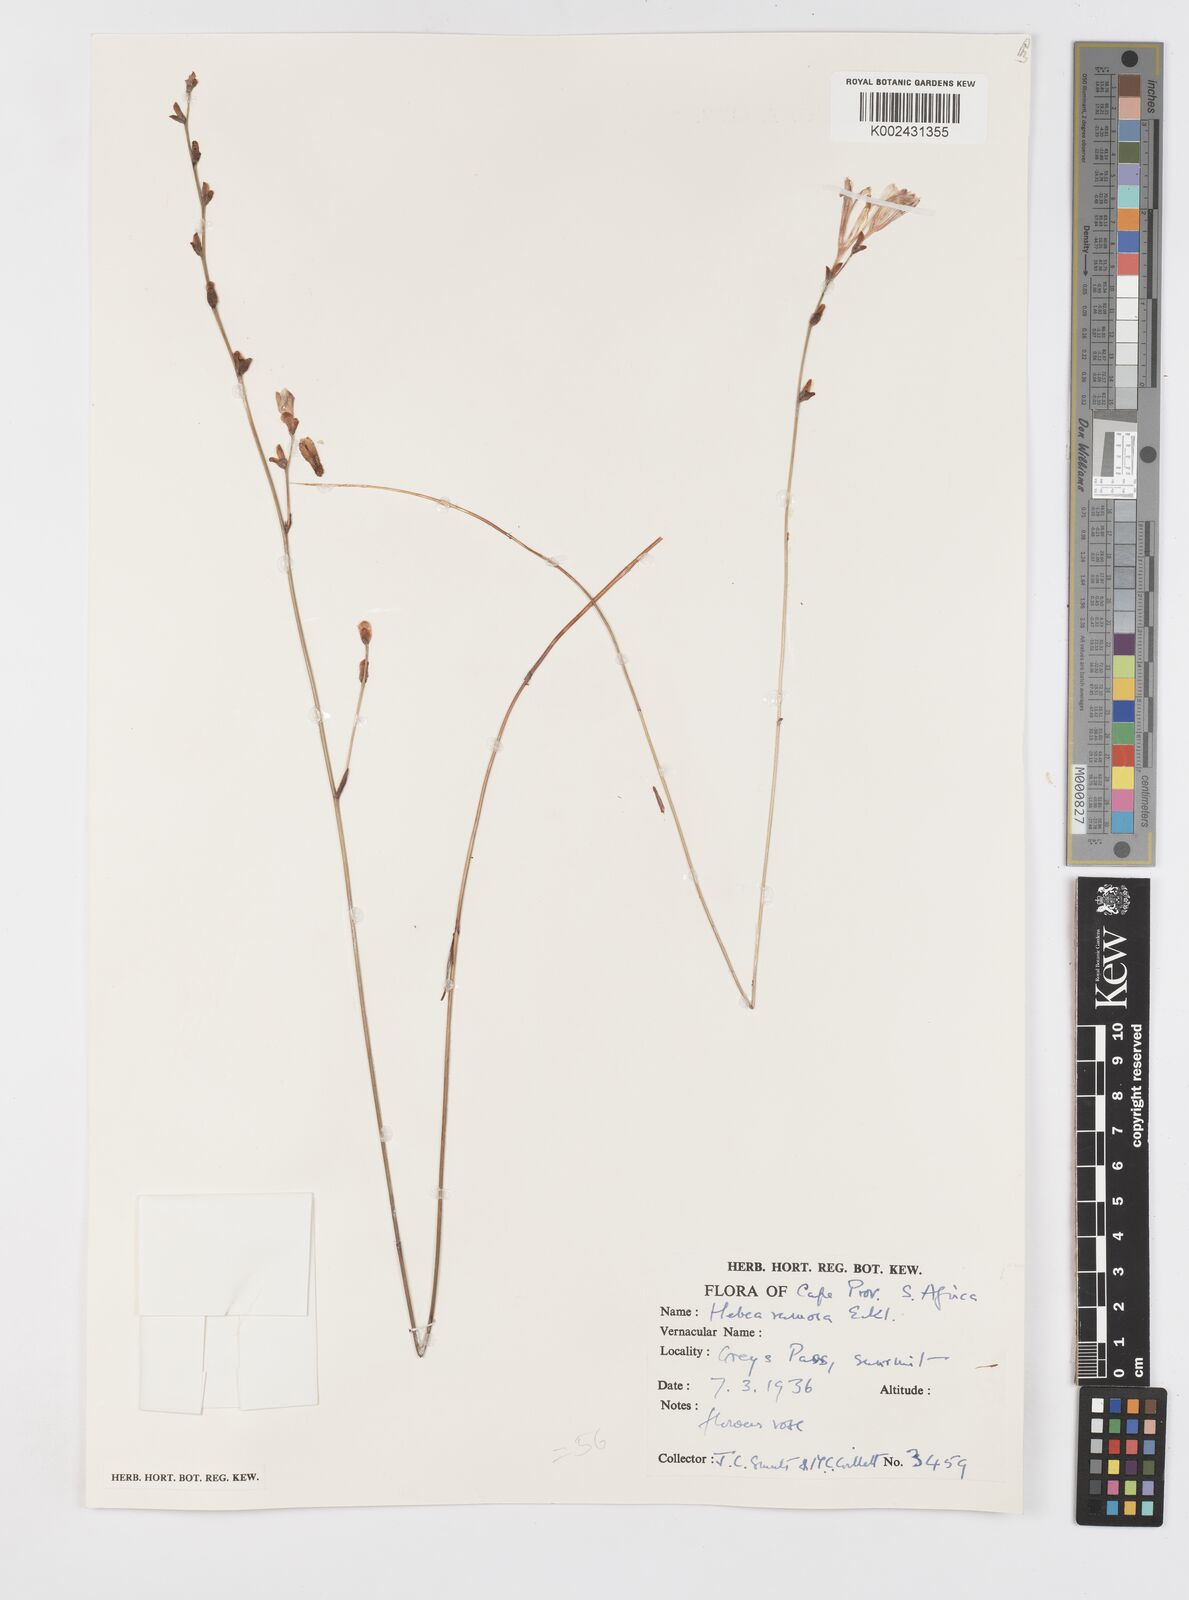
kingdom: Plantae
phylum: Tracheophyta
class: Liliopsida
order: Asparagales
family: Iridaceae
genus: Tritoniopsis
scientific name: Tritoniopsis ramosa
